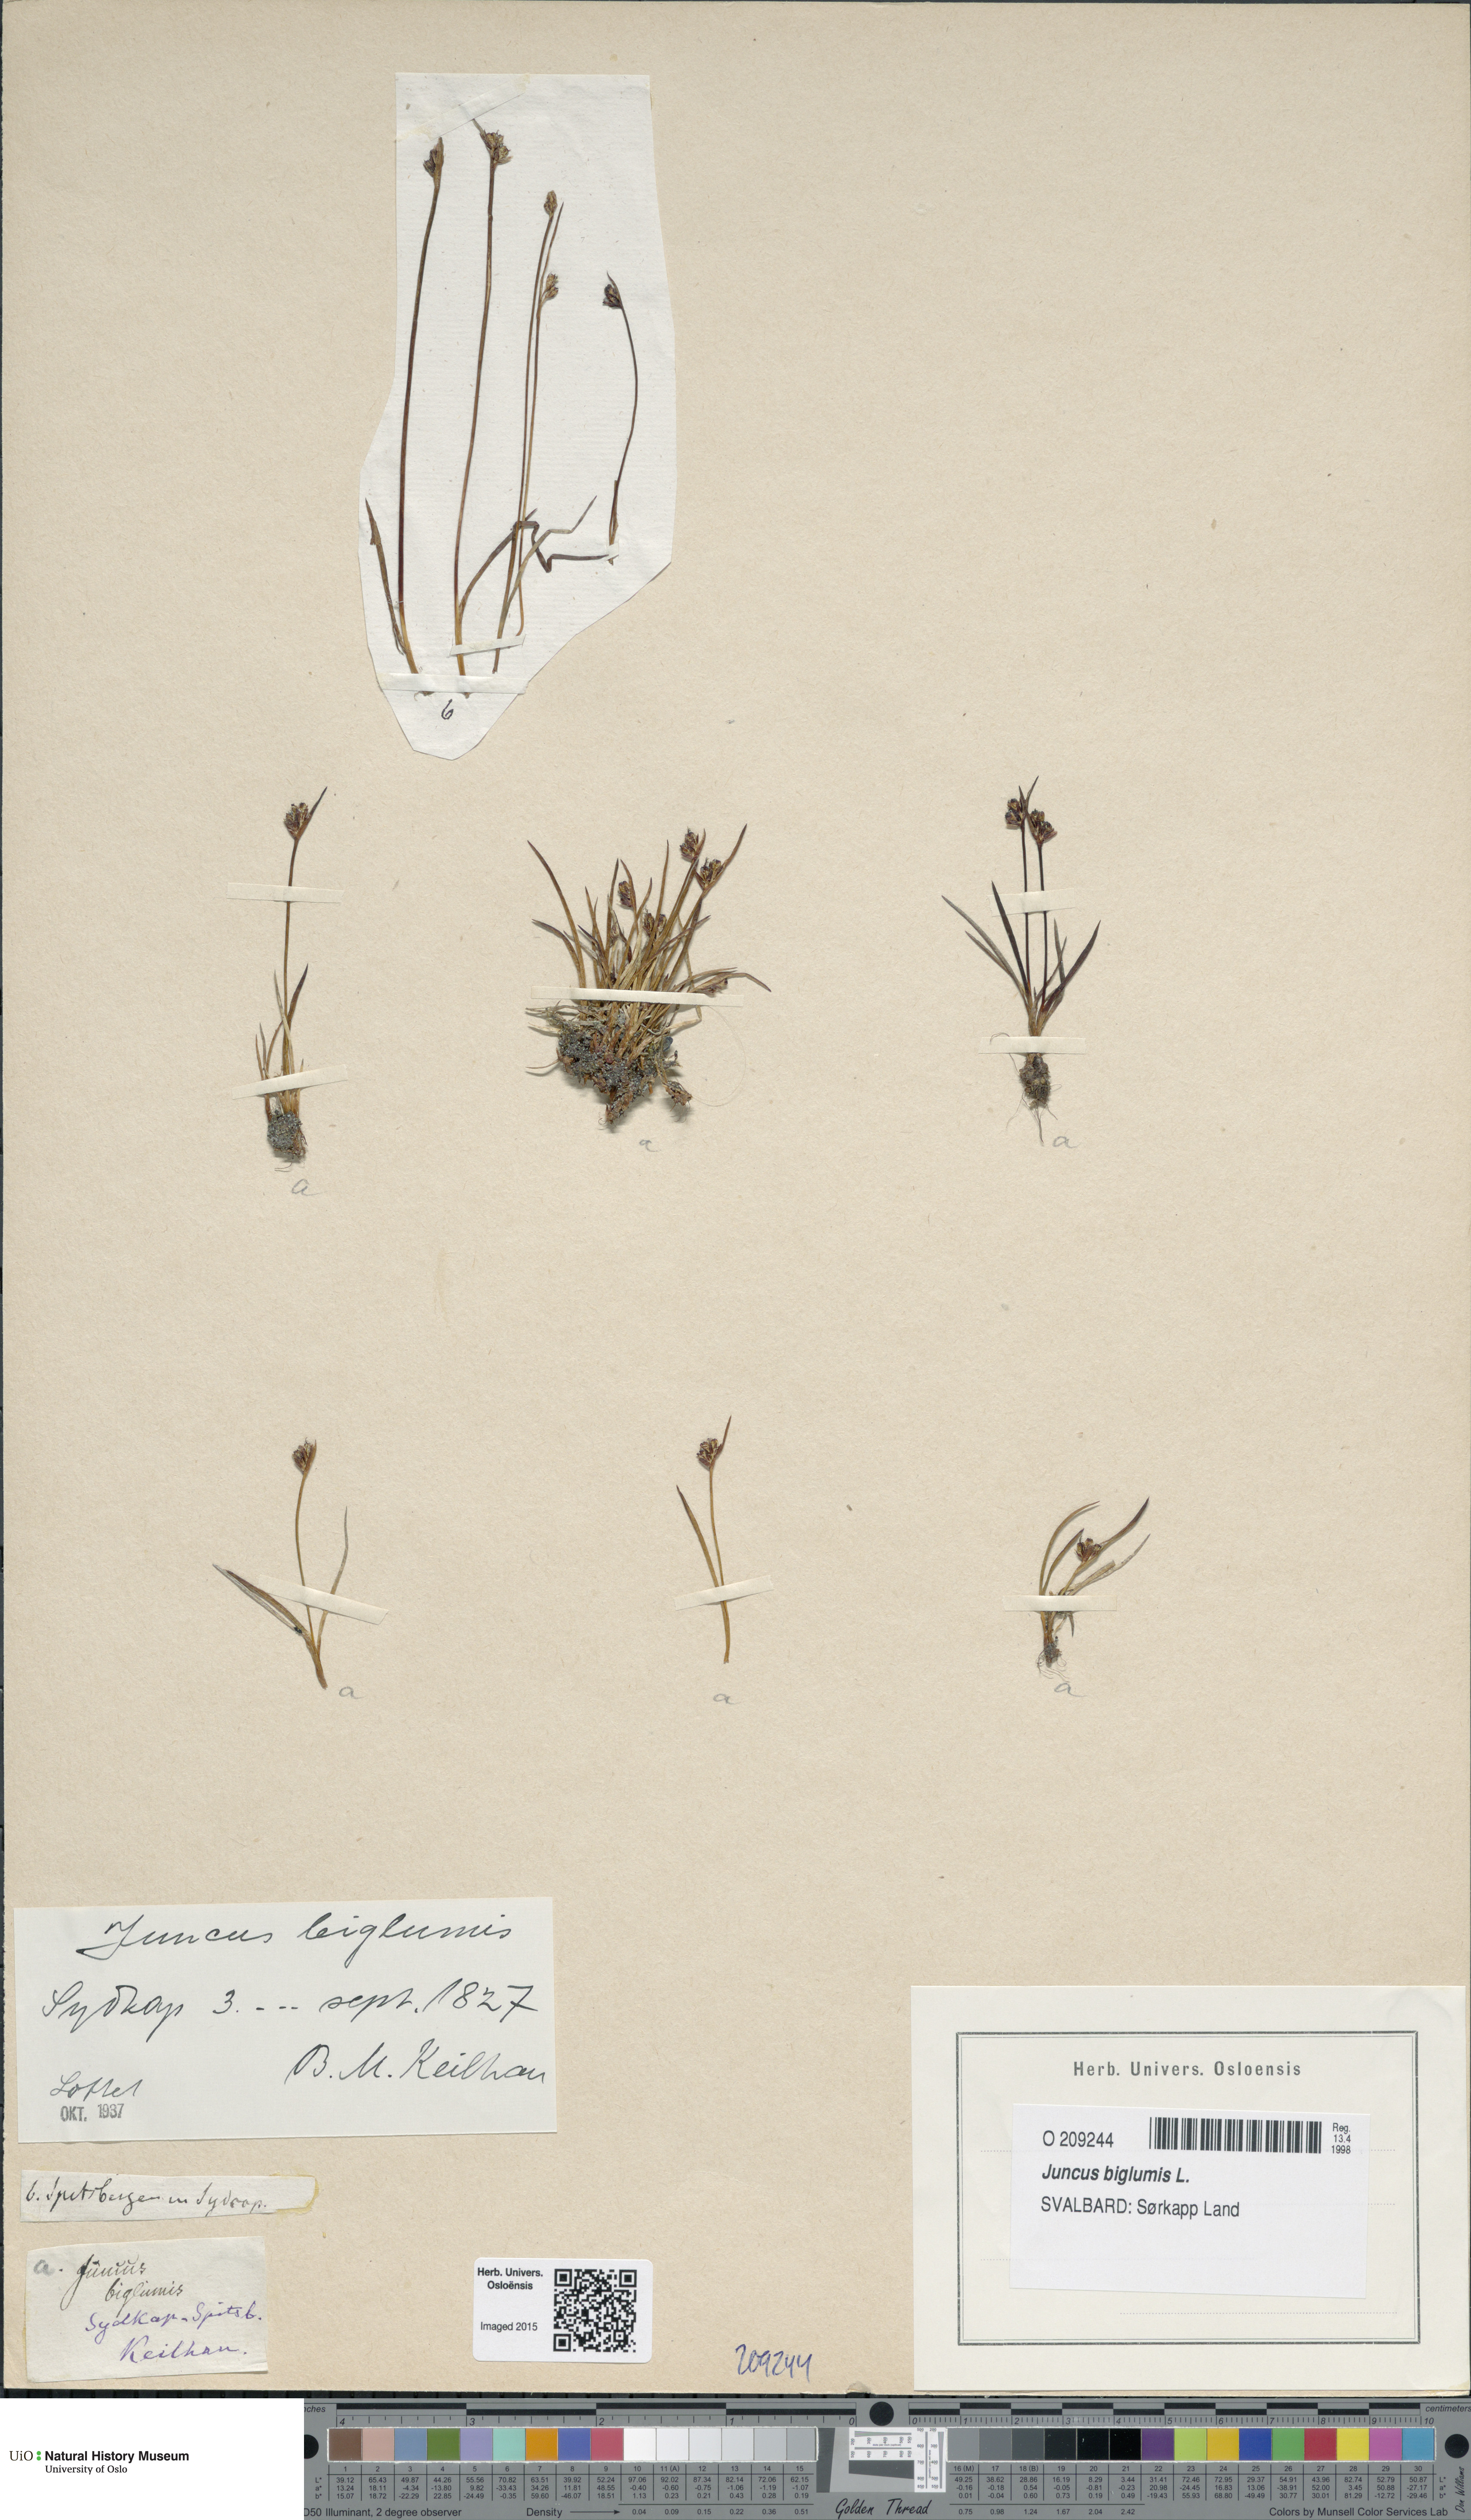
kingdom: Plantae
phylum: Tracheophyta
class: Liliopsida
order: Poales
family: Juncaceae
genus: Juncus
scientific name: Juncus biglumis
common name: Two-flowered rush
